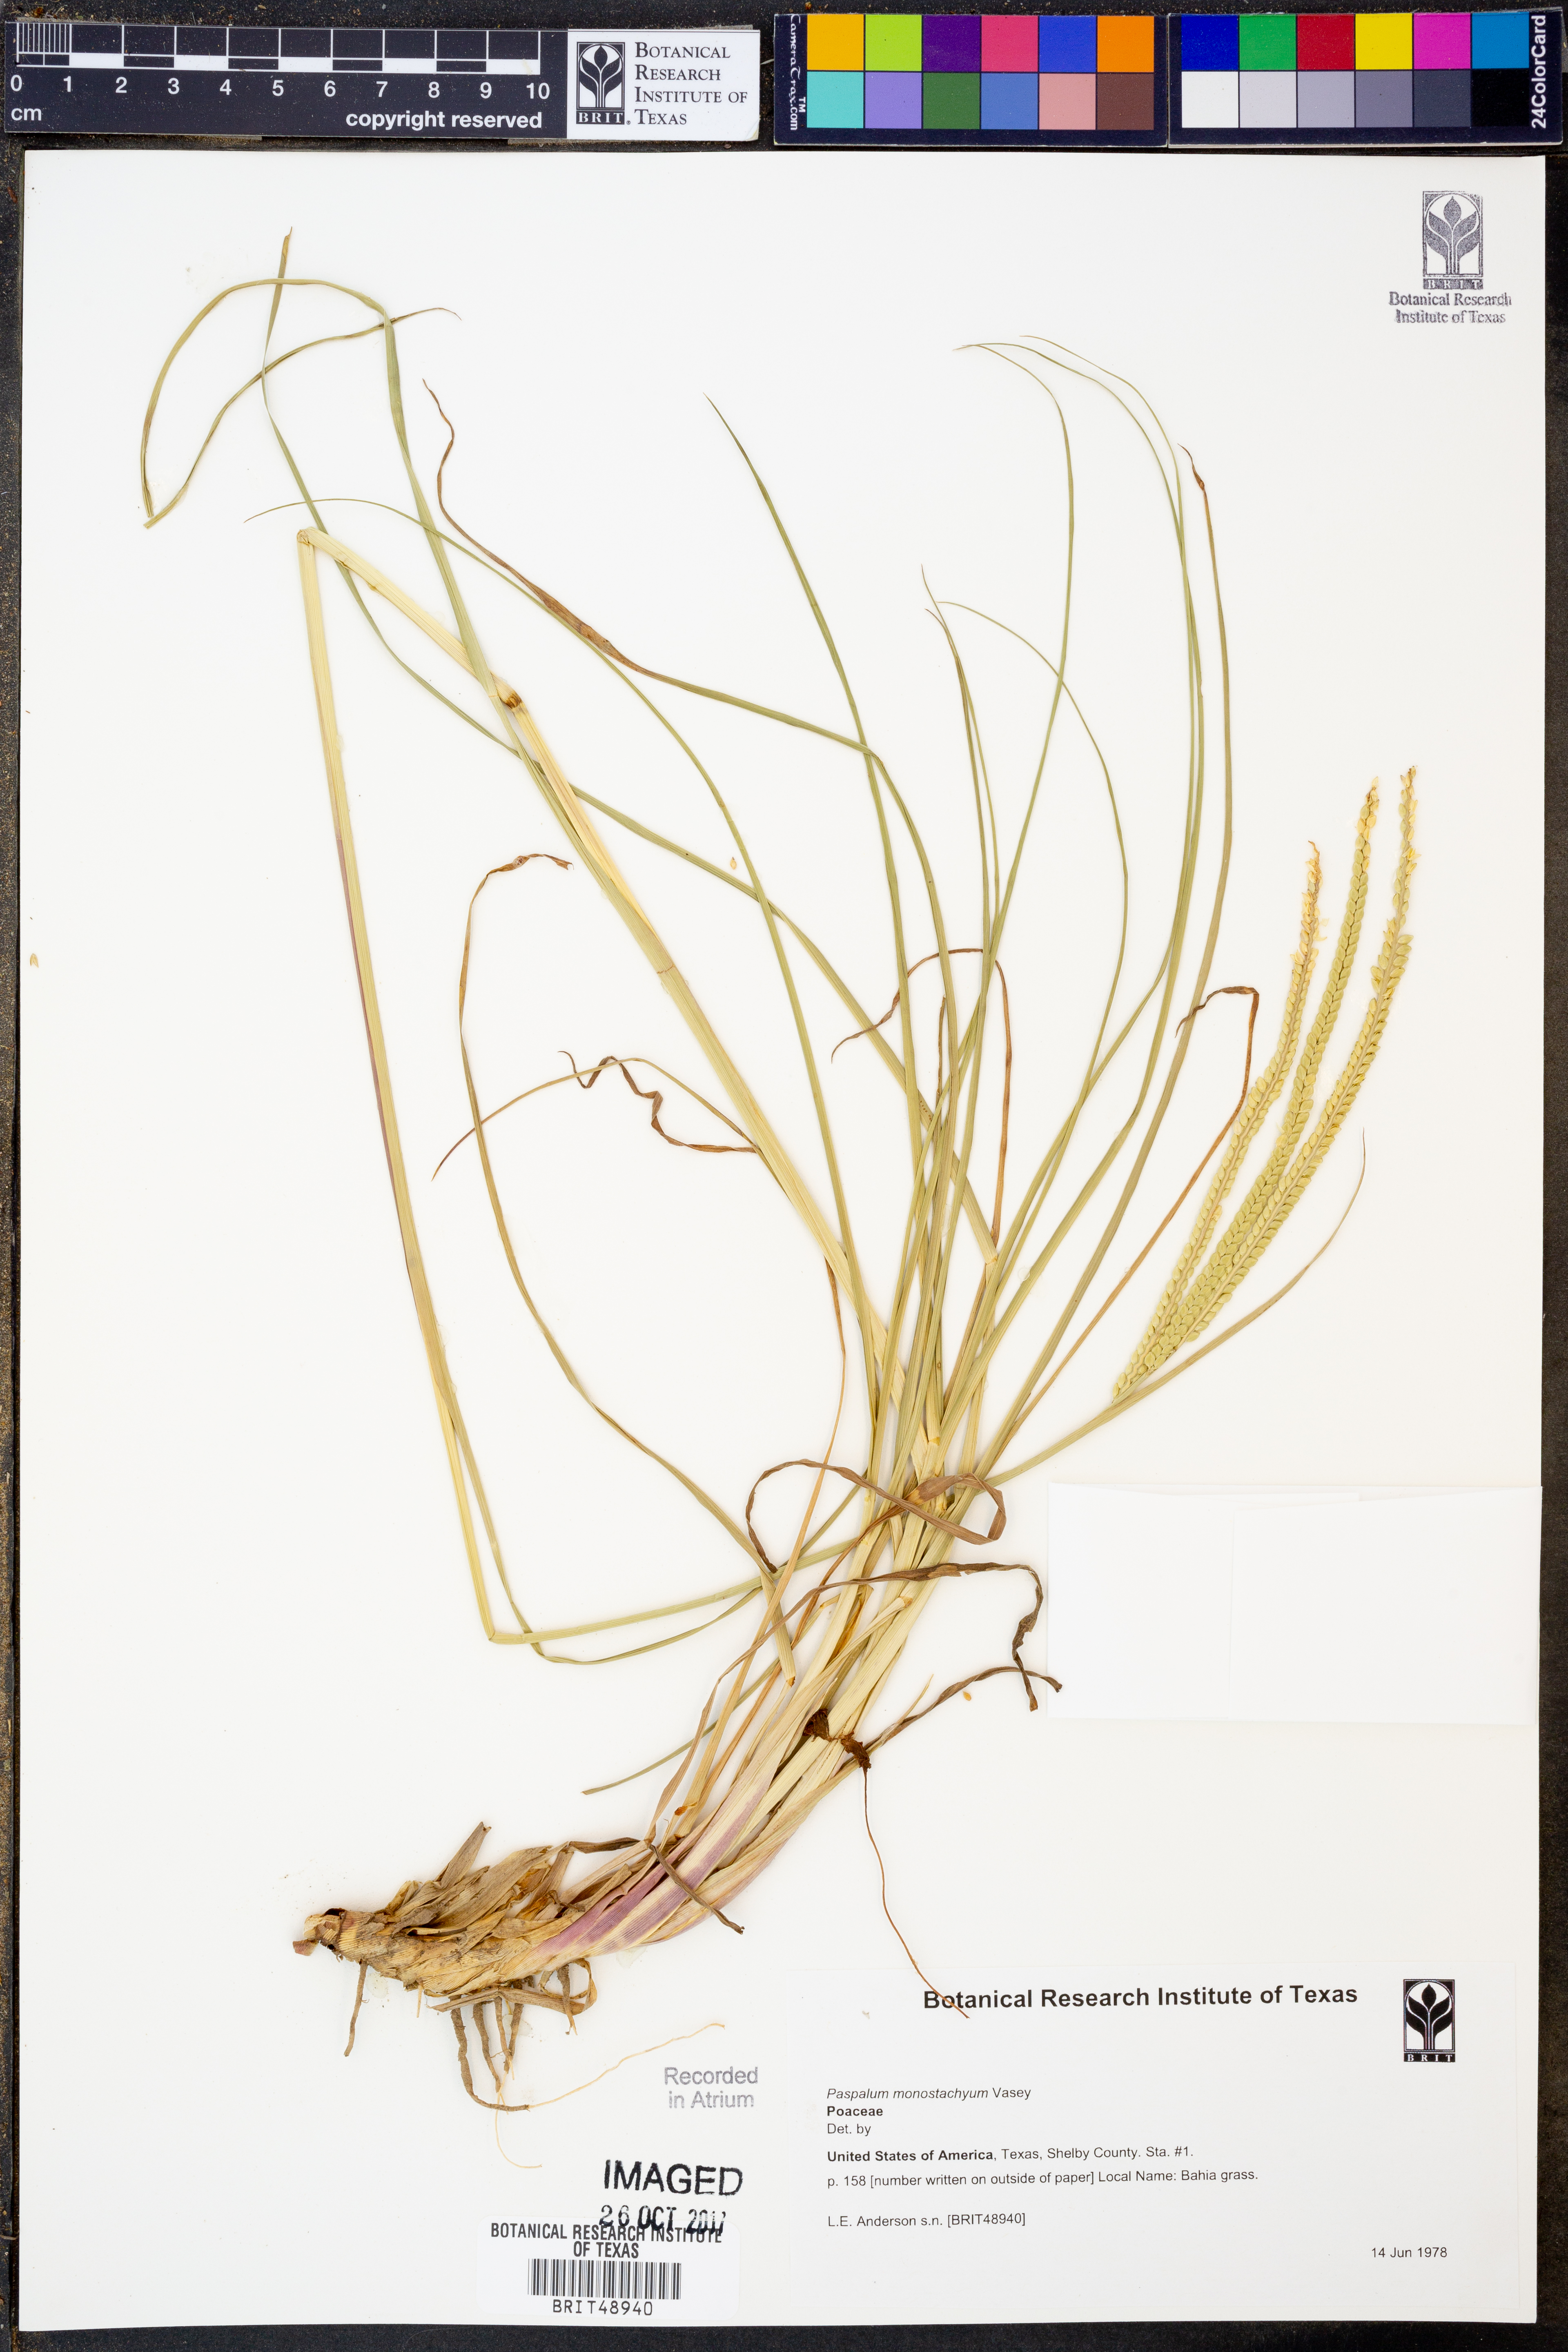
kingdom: Plantae
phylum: Tracheophyta
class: Liliopsida
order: Poales
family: Poaceae
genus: Paspalum
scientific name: Paspalum monostachyum
